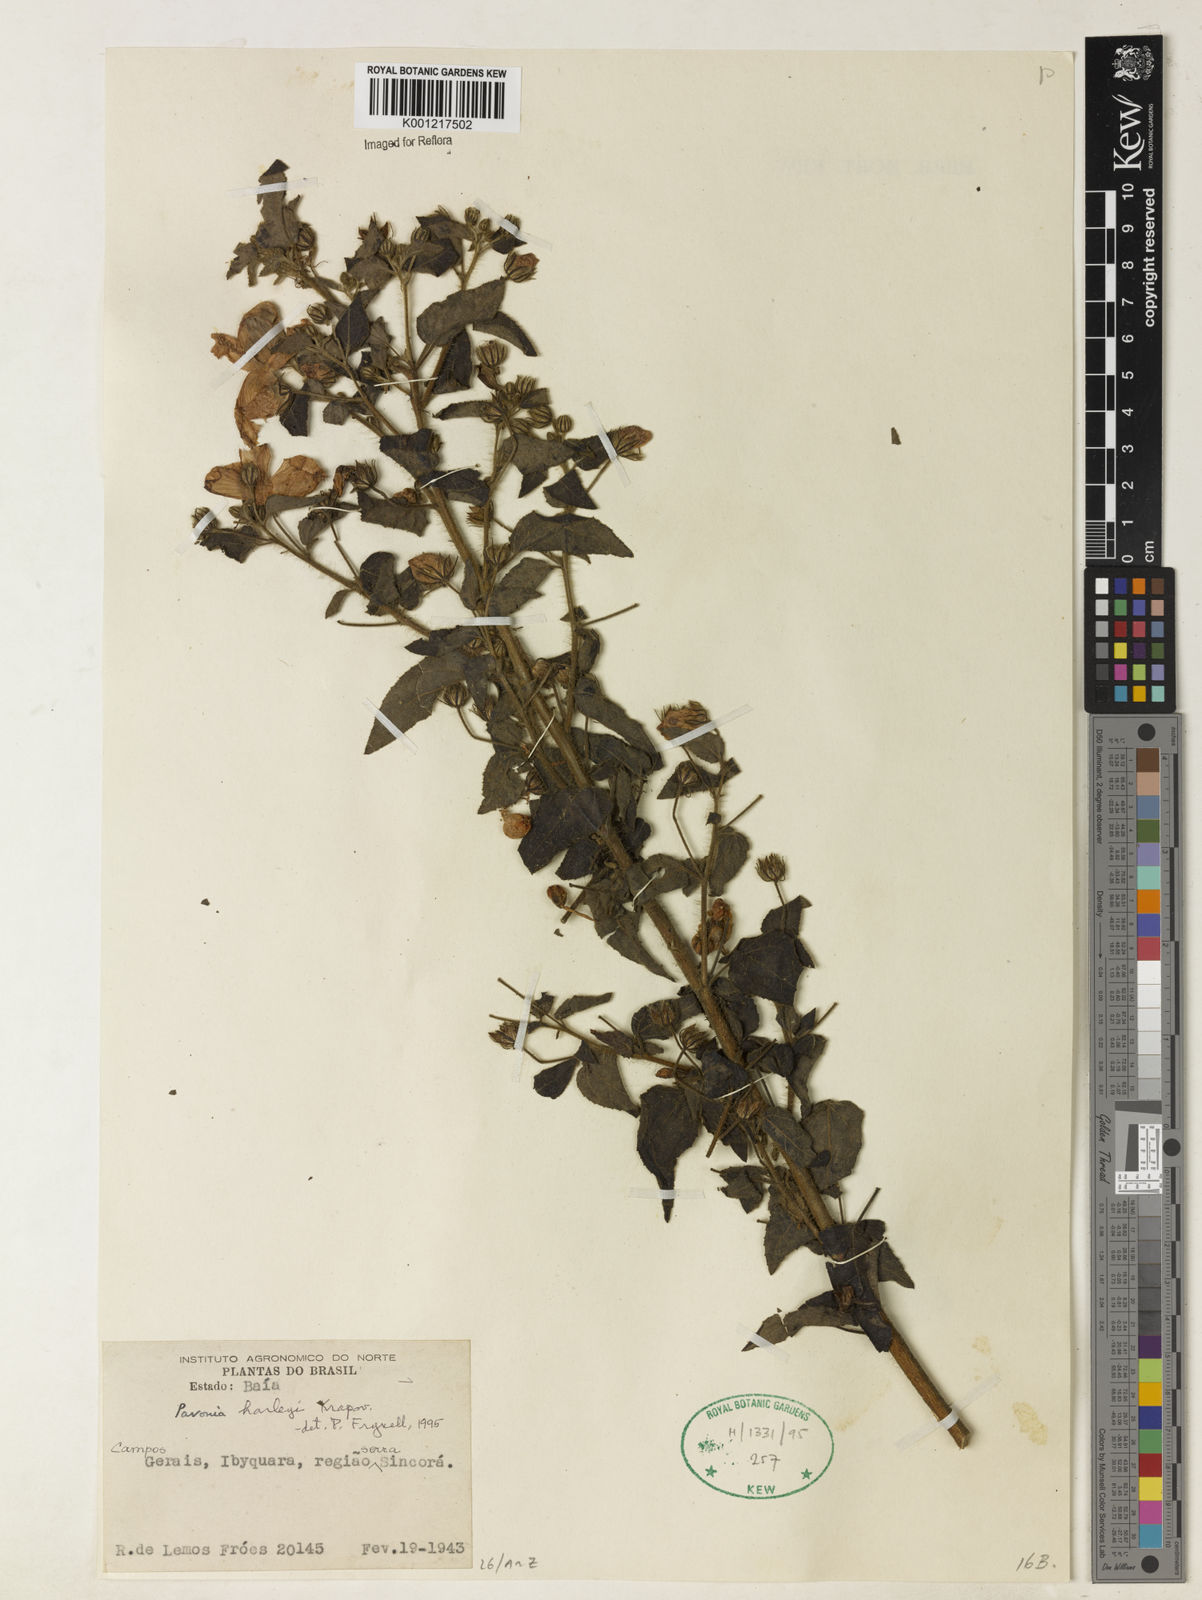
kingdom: Plantae
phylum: Tracheophyta
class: Magnoliopsida
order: Malvales
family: Malvaceae
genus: Pavonia
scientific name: Pavonia harleyi
